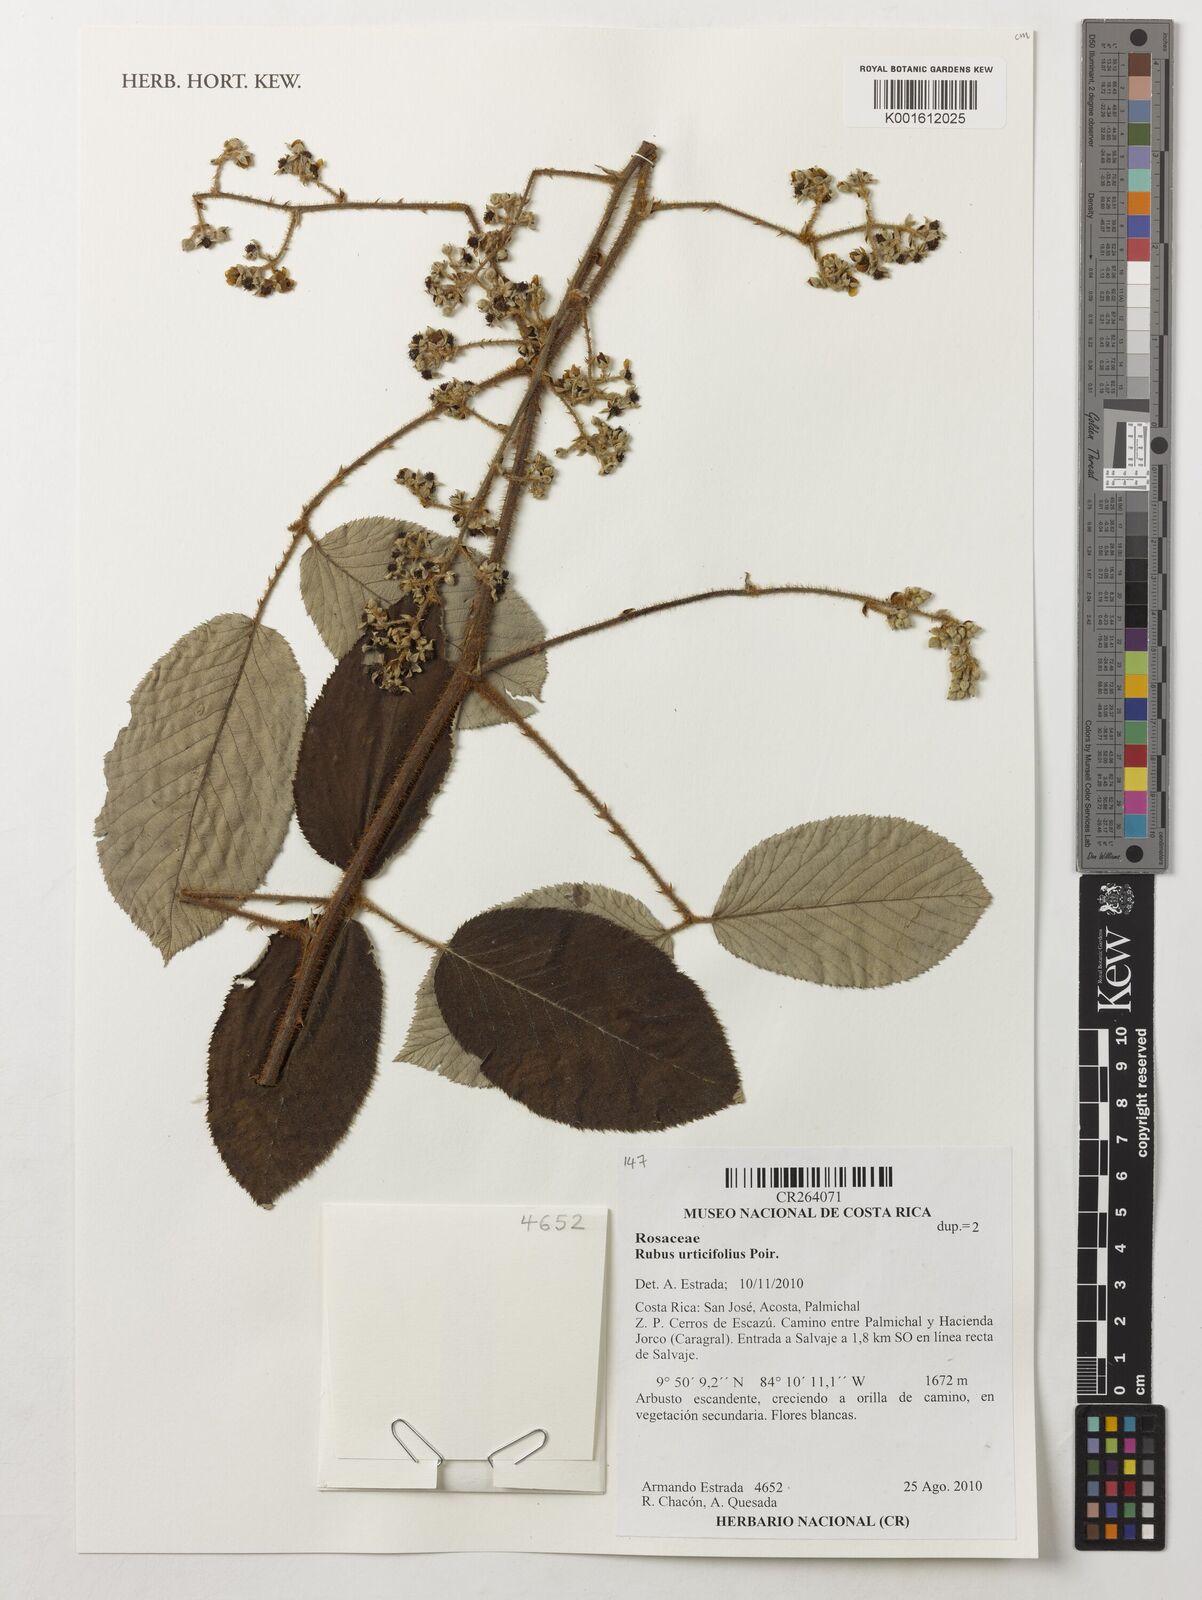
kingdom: Plantae
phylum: Tracheophyta
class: Magnoliopsida
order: Rosales
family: Rosaceae
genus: Rubus
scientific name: Rubus urticifolius
